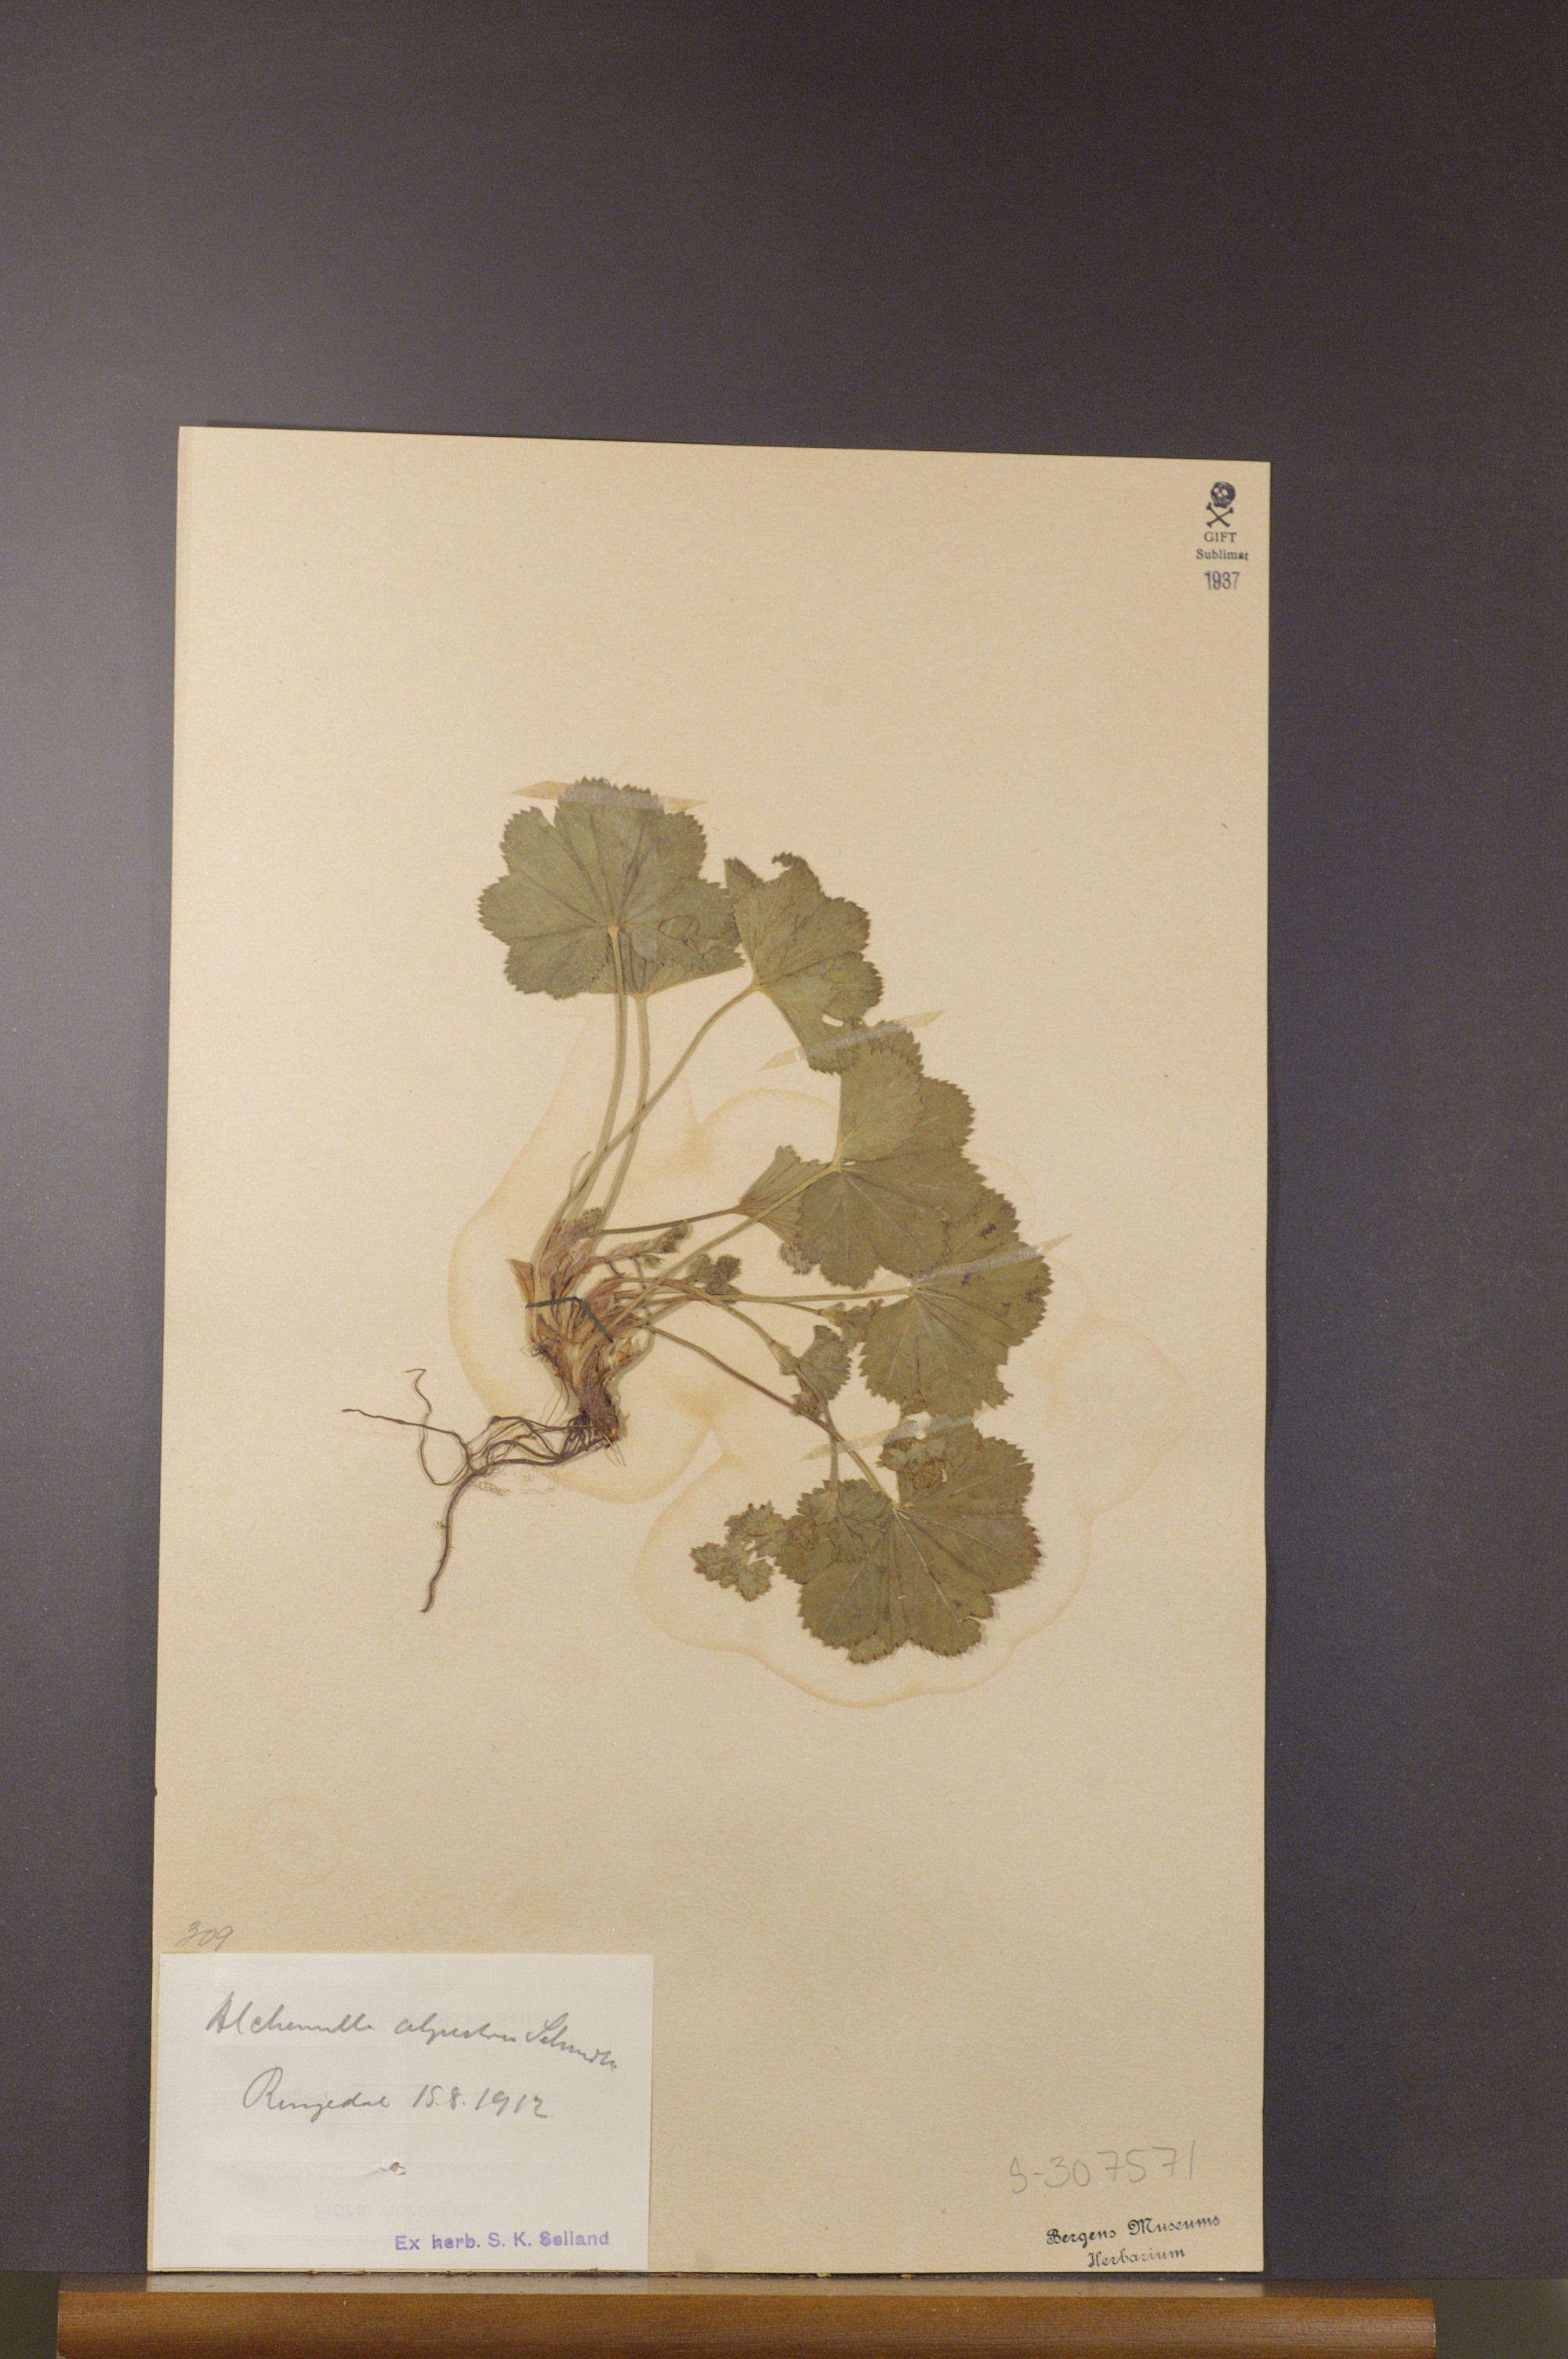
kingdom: Plantae
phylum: Tracheophyta
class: Magnoliopsida
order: Rosales
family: Rosaceae
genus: Alchemilla
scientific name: Alchemilla glabra
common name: Smooth lady's-mantle
